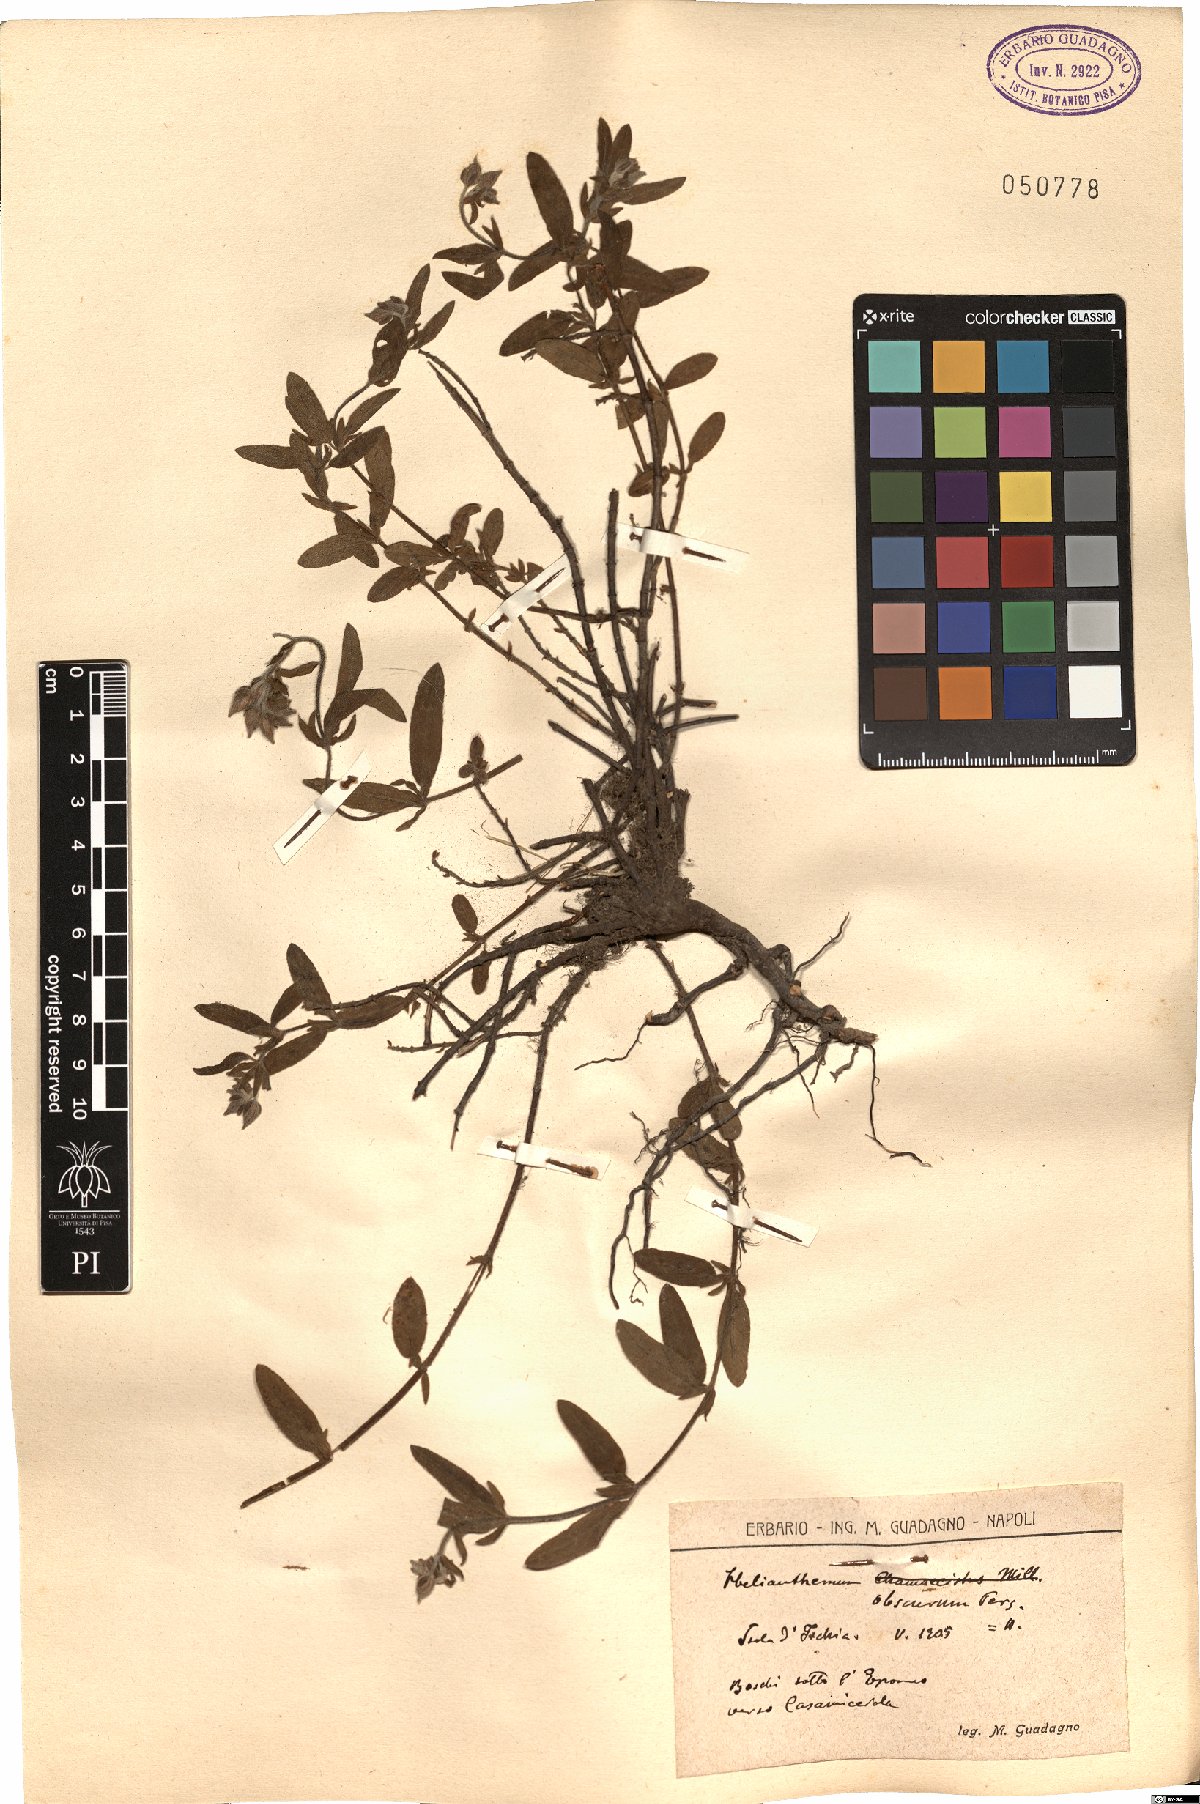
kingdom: Plantae
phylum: Tracheophyta
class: Magnoliopsida
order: Malvales
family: Cistaceae
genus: Helianthemum
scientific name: Helianthemum nummularium
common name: Common rock-rose
